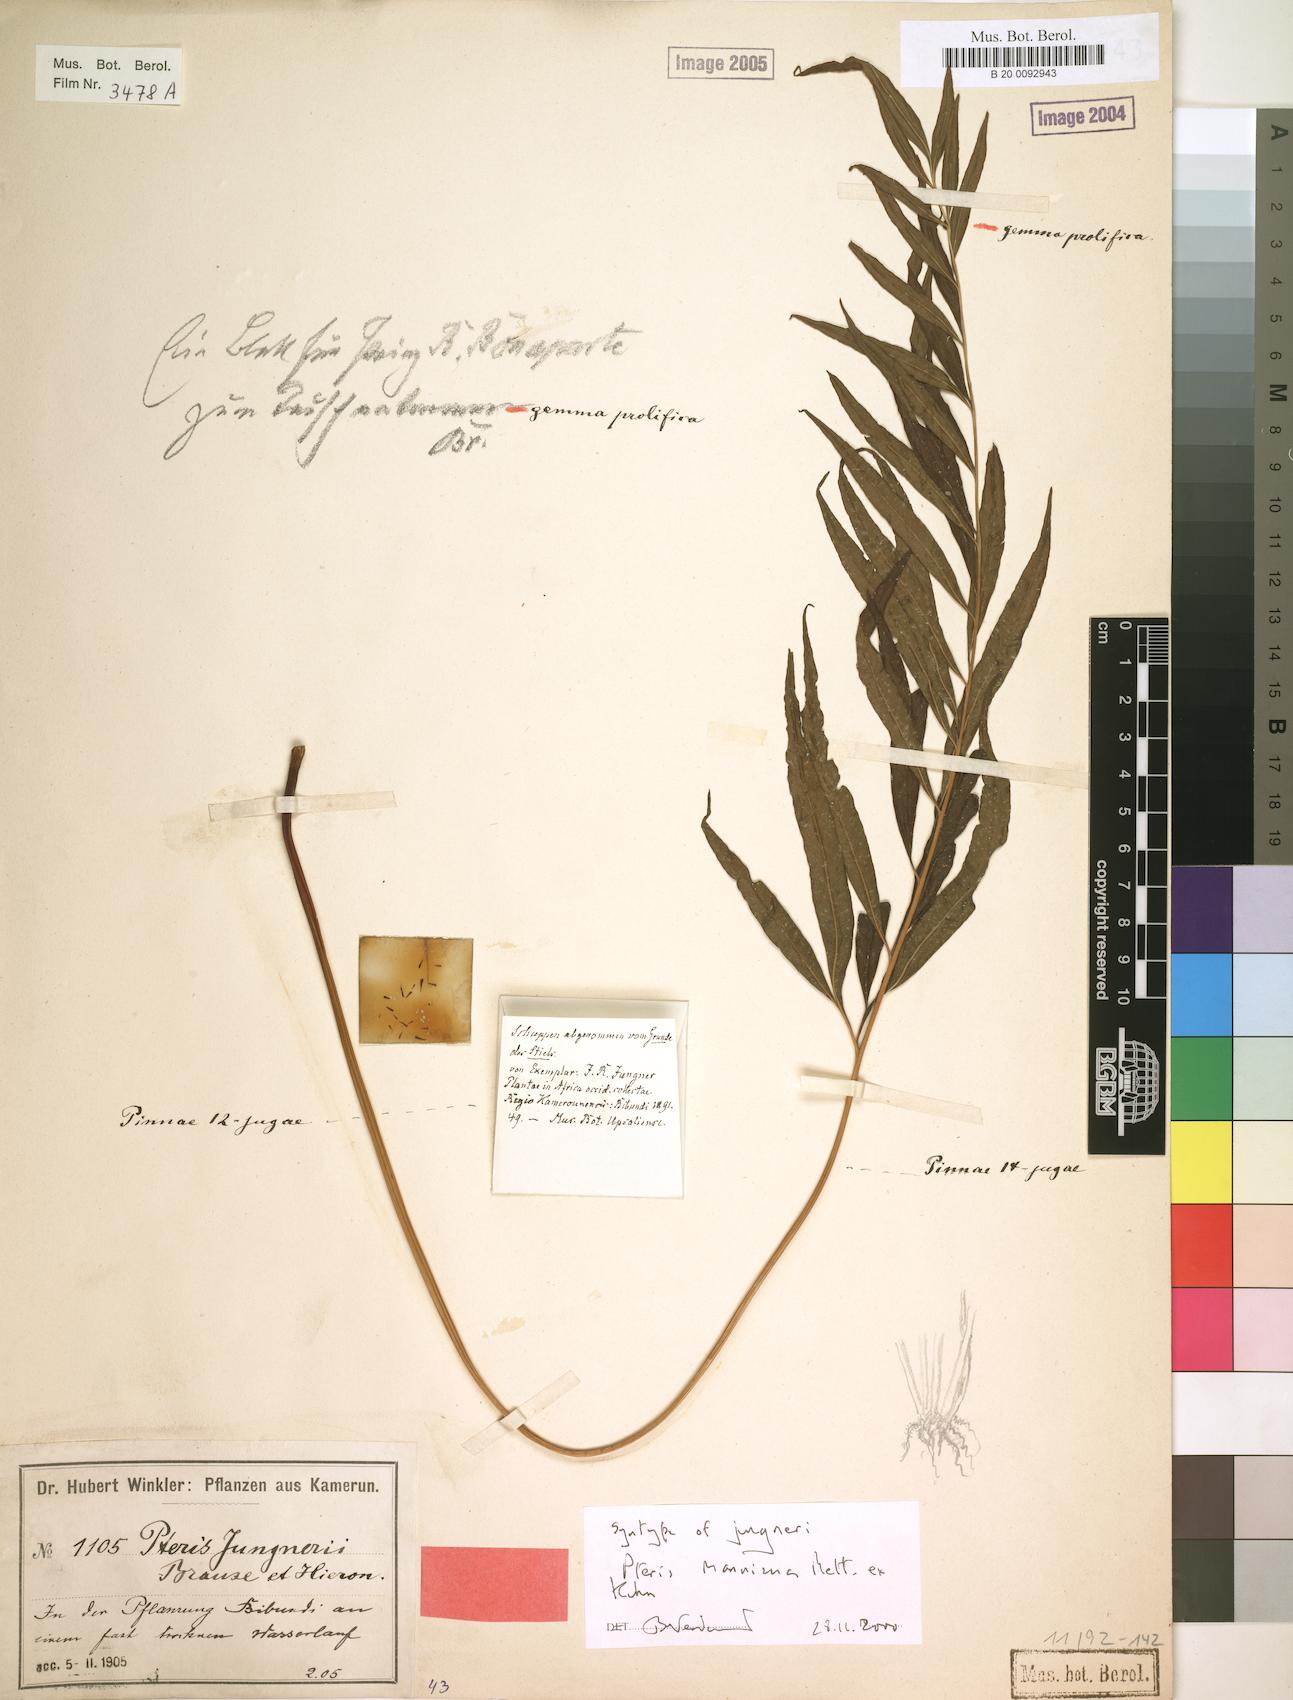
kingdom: Plantae
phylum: Tracheophyta
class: Polypodiopsida
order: Polypodiales
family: Pteridaceae
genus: Pteris
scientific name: Pteris camerooniana
